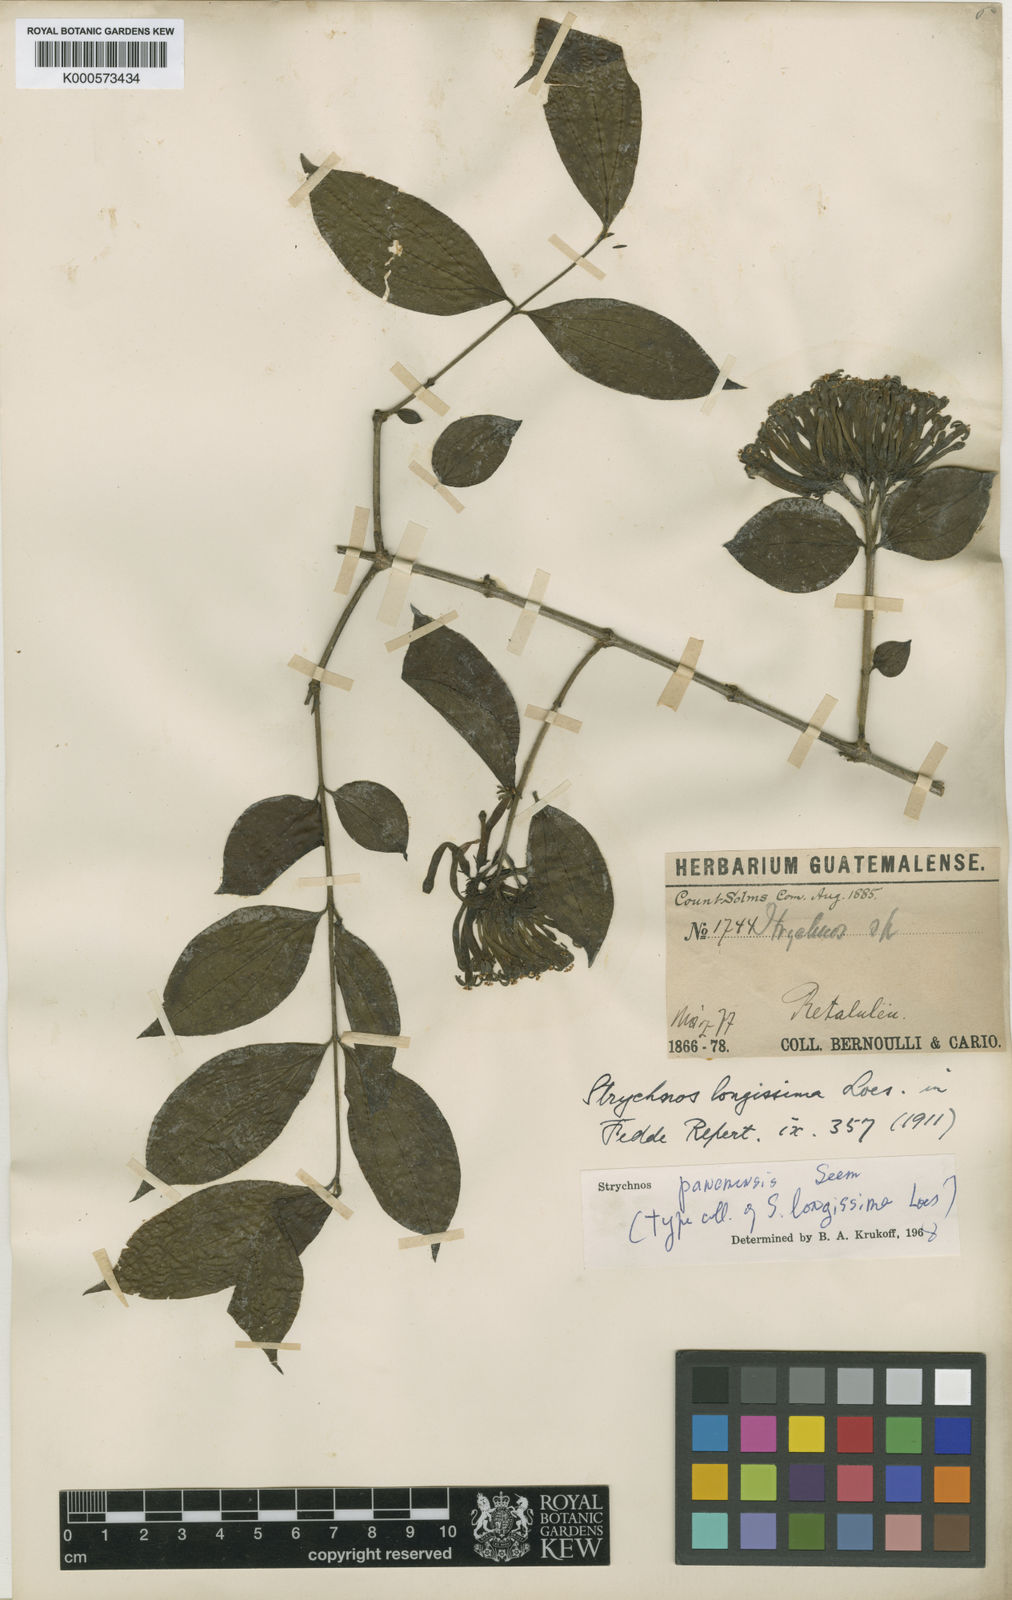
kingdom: Plantae
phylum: Tracheophyta
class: Magnoliopsida
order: Gentianales
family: Loganiaceae
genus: Strychnos
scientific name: Strychnos panamensis
